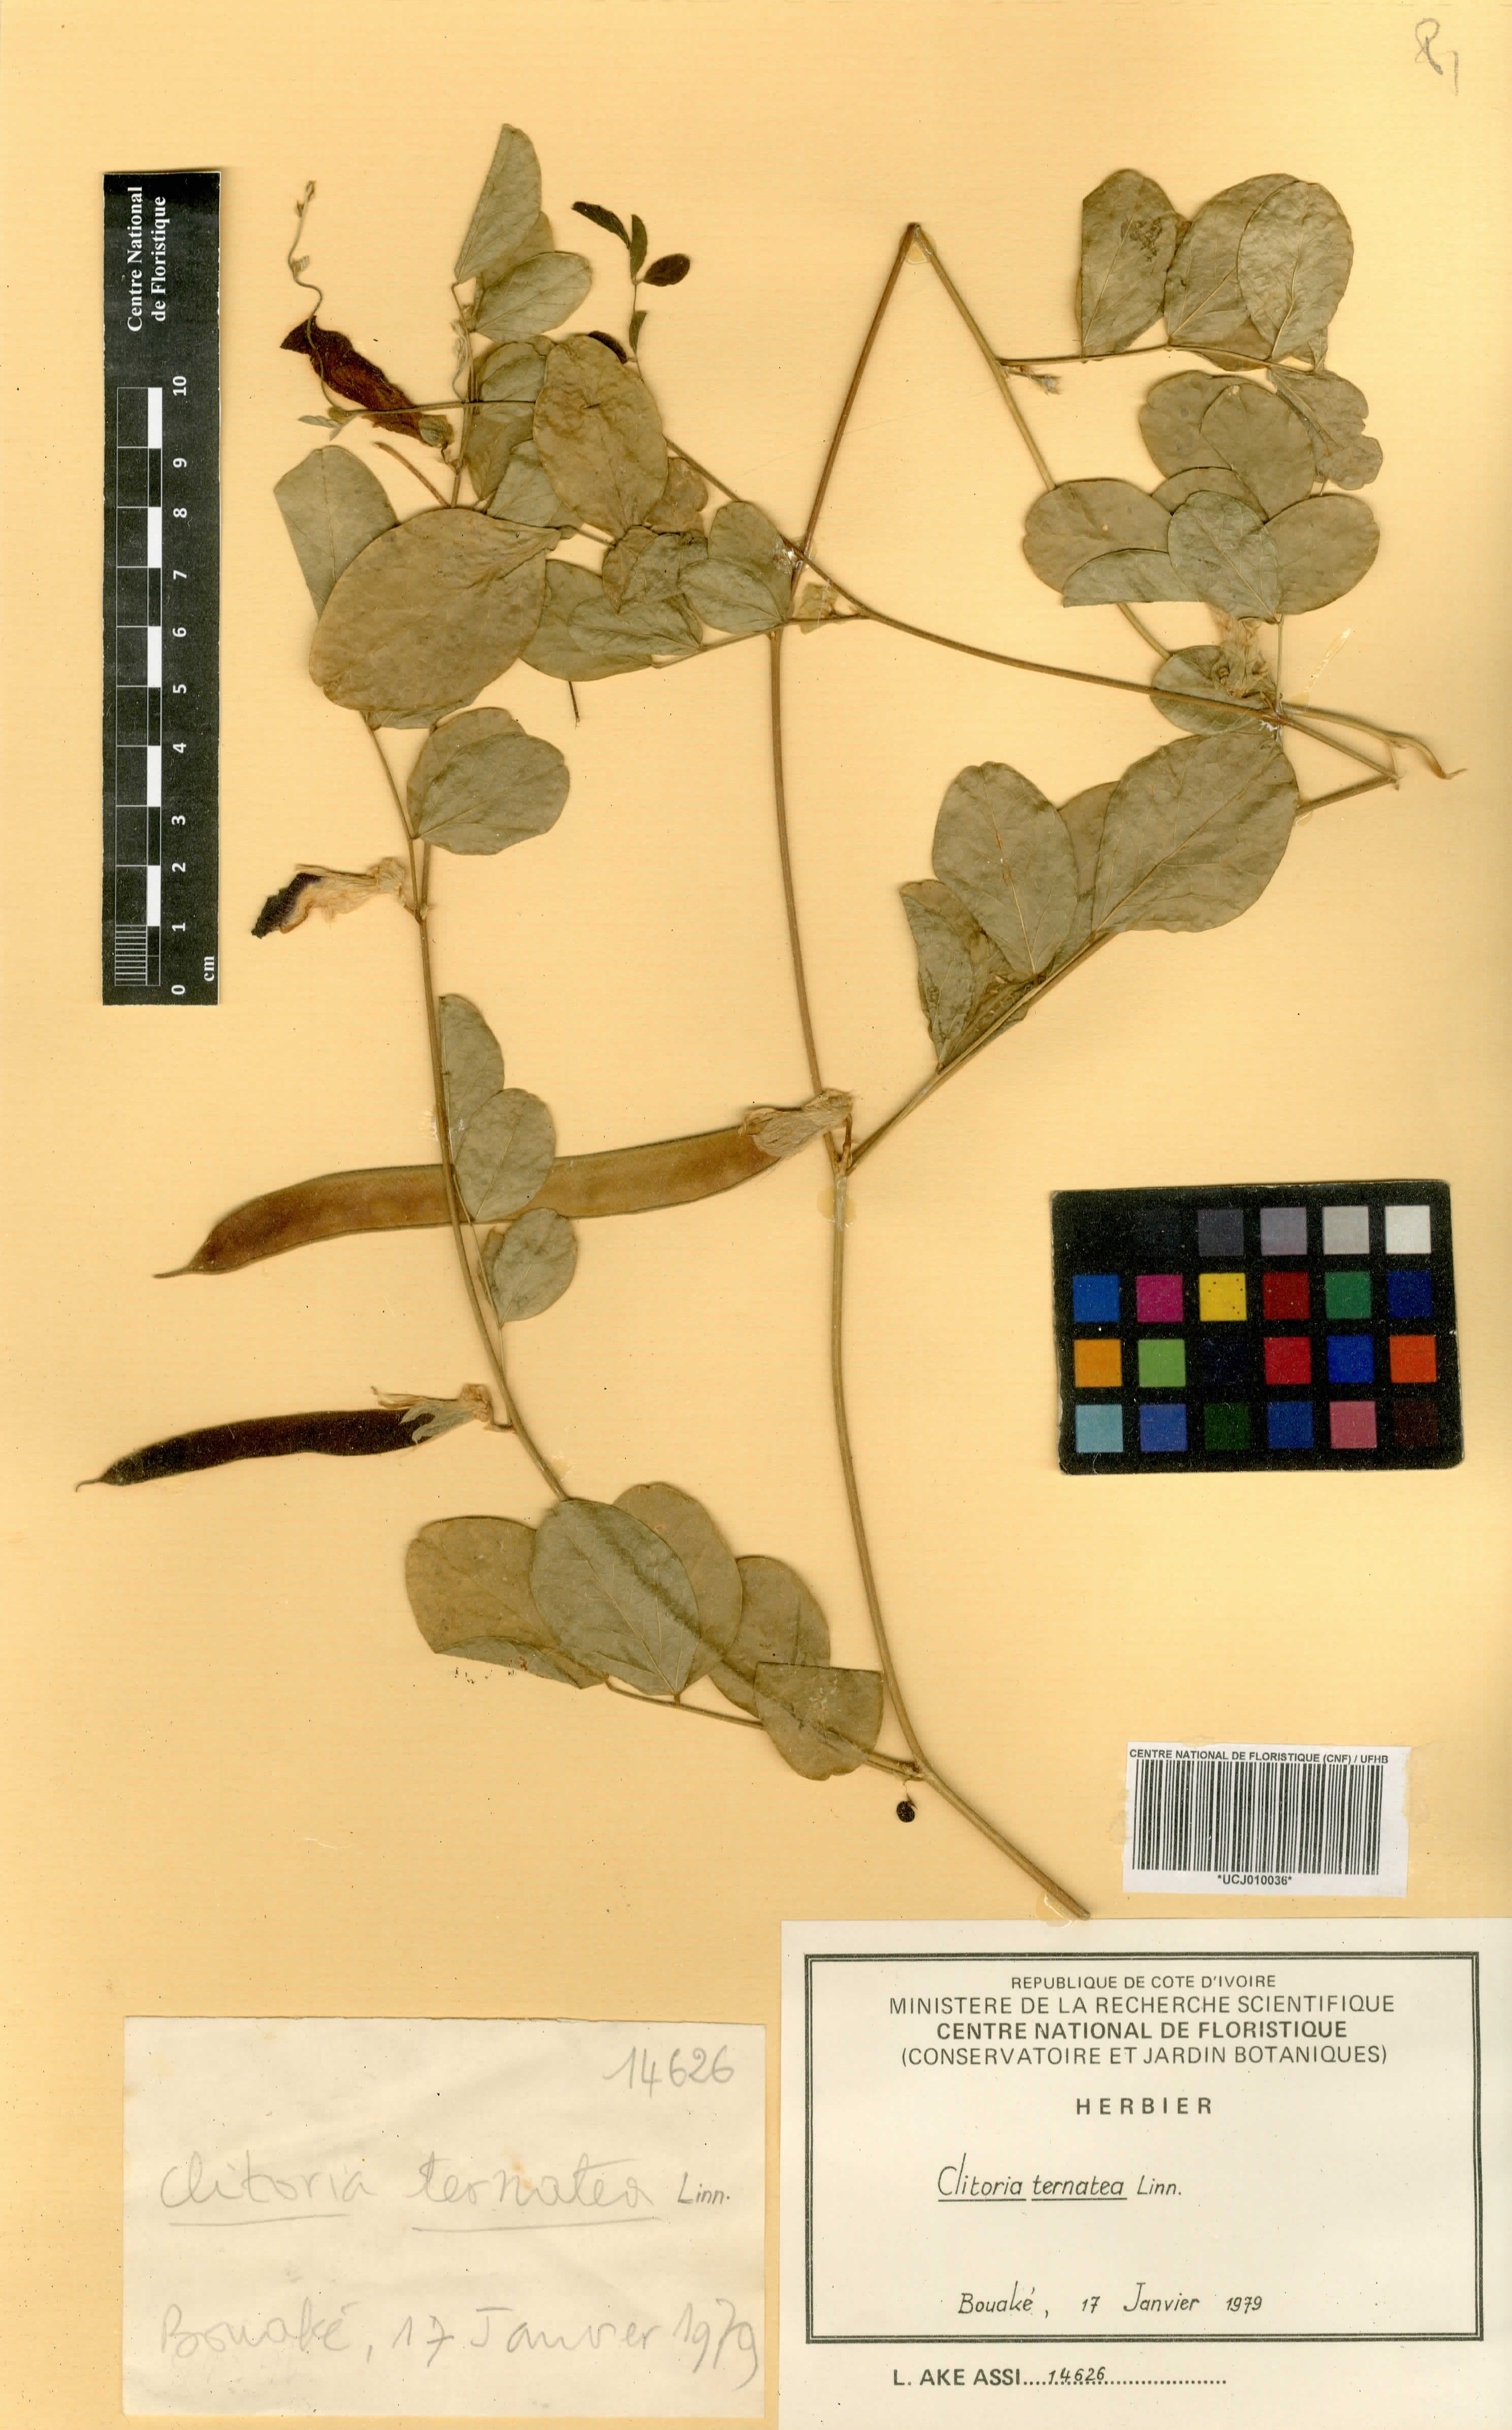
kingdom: Plantae
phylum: Tracheophyta
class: Magnoliopsida
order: Fabales
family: Fabaceae
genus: Clitoria
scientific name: Clitoria ternatea
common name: Asian pigeonwings
